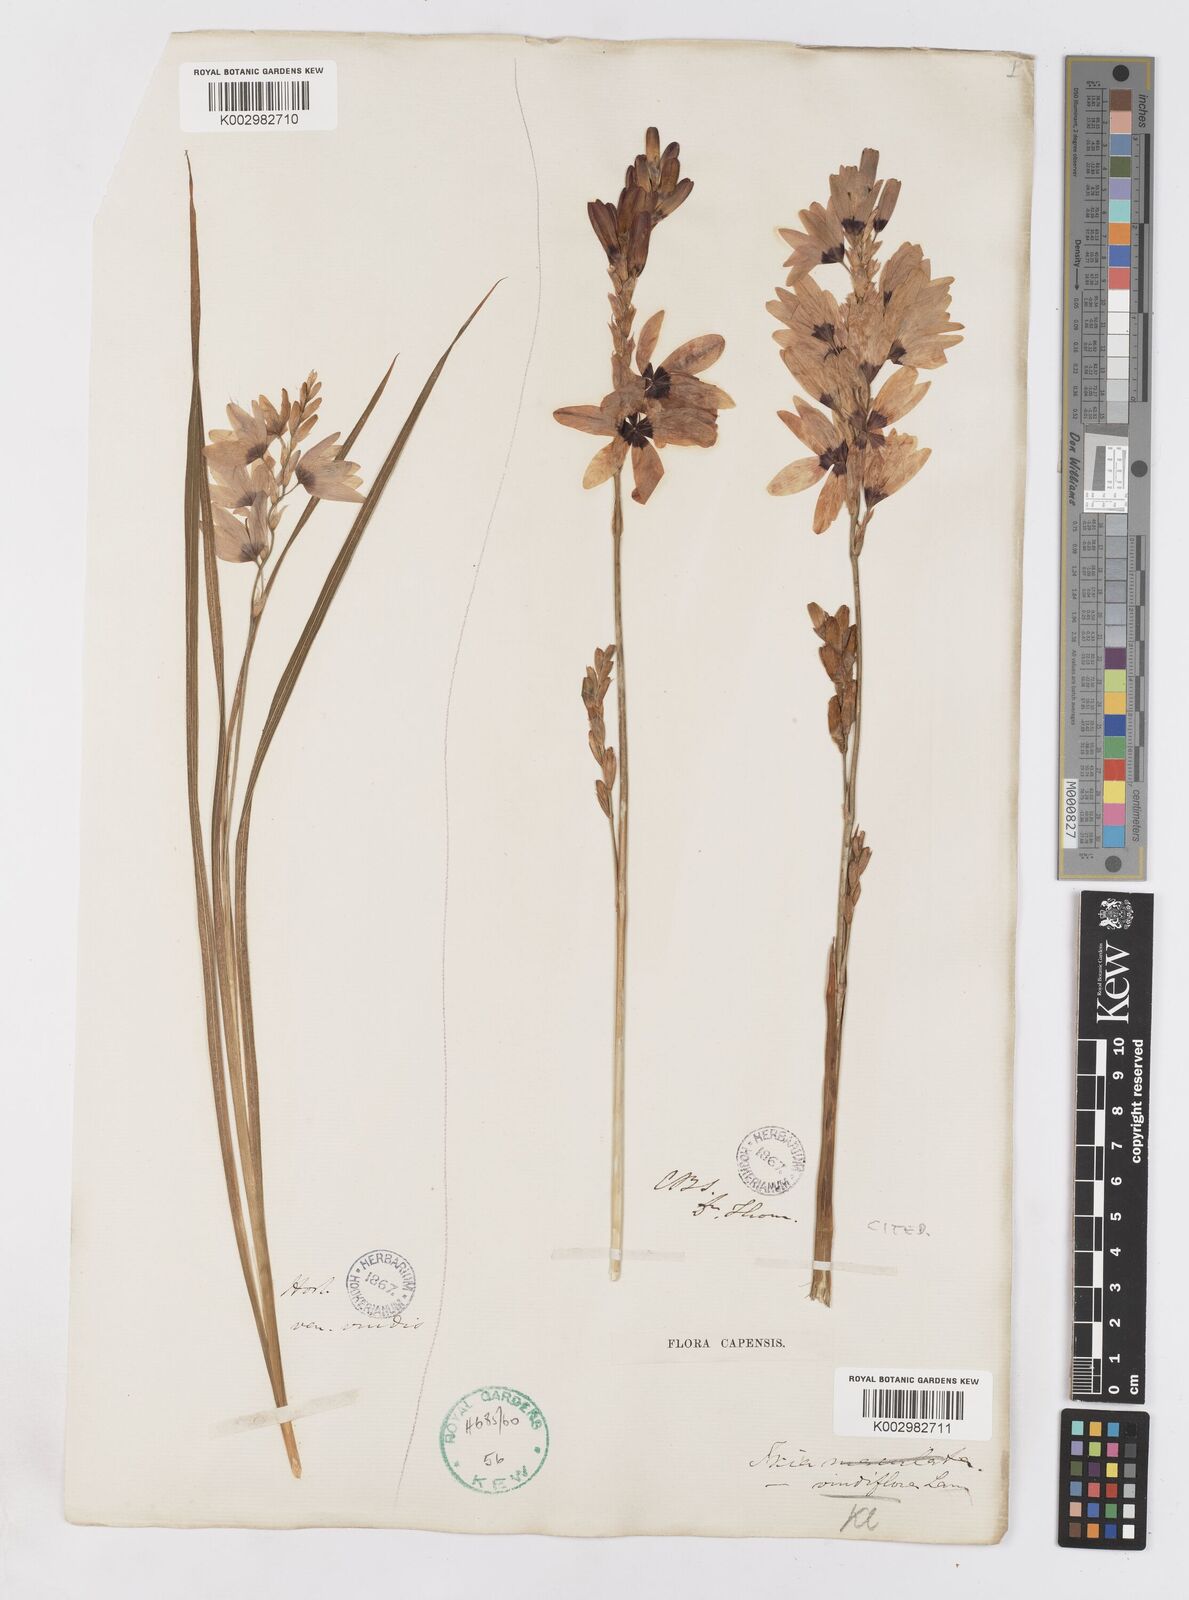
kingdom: Plantae
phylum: Tracheophyta
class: Liliopsida
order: Asparagales
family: Iridaceae
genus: Ixia
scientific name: Ixia viridiflora
